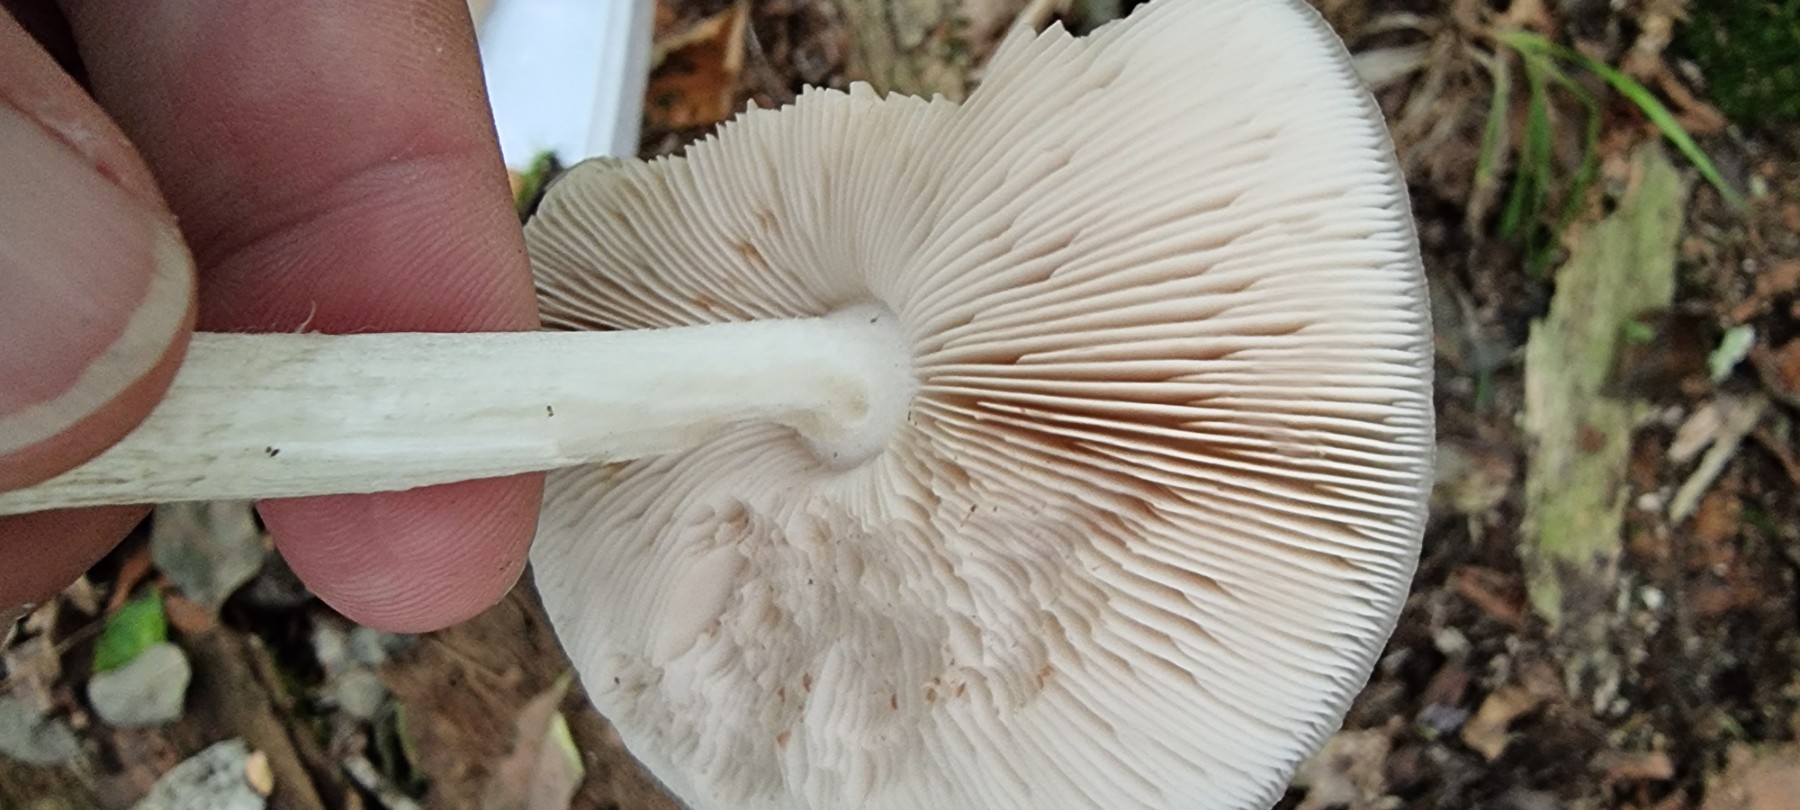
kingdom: Fungi
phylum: Basidiomycota
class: Agaricomycetes
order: Agaricales
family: Pluteaceae
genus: Pluteus
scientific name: Pluteus cervinus
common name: sodfarvet skærmhat
